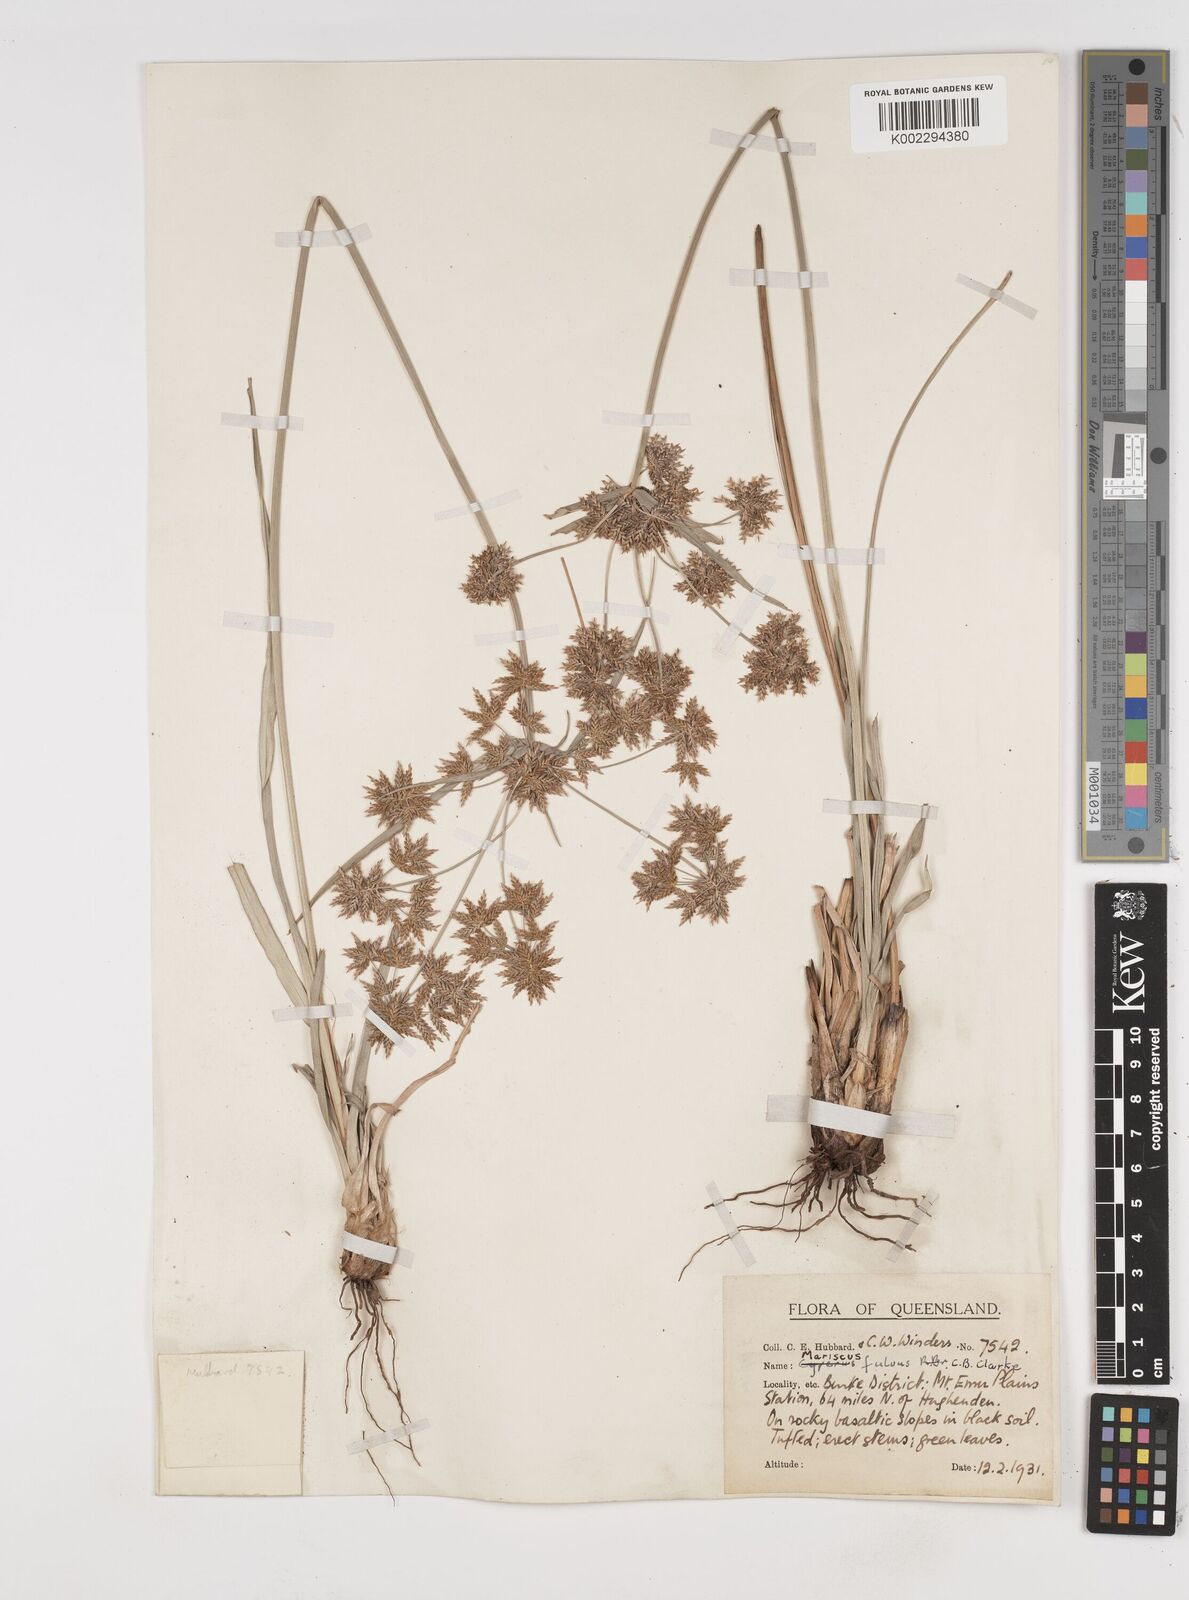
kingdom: Plantae
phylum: Tracheophyta
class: Liliopsida
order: Poales
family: Cyperaceae
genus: Cyperus
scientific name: Cyperus fulvus
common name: Sticky sedge
